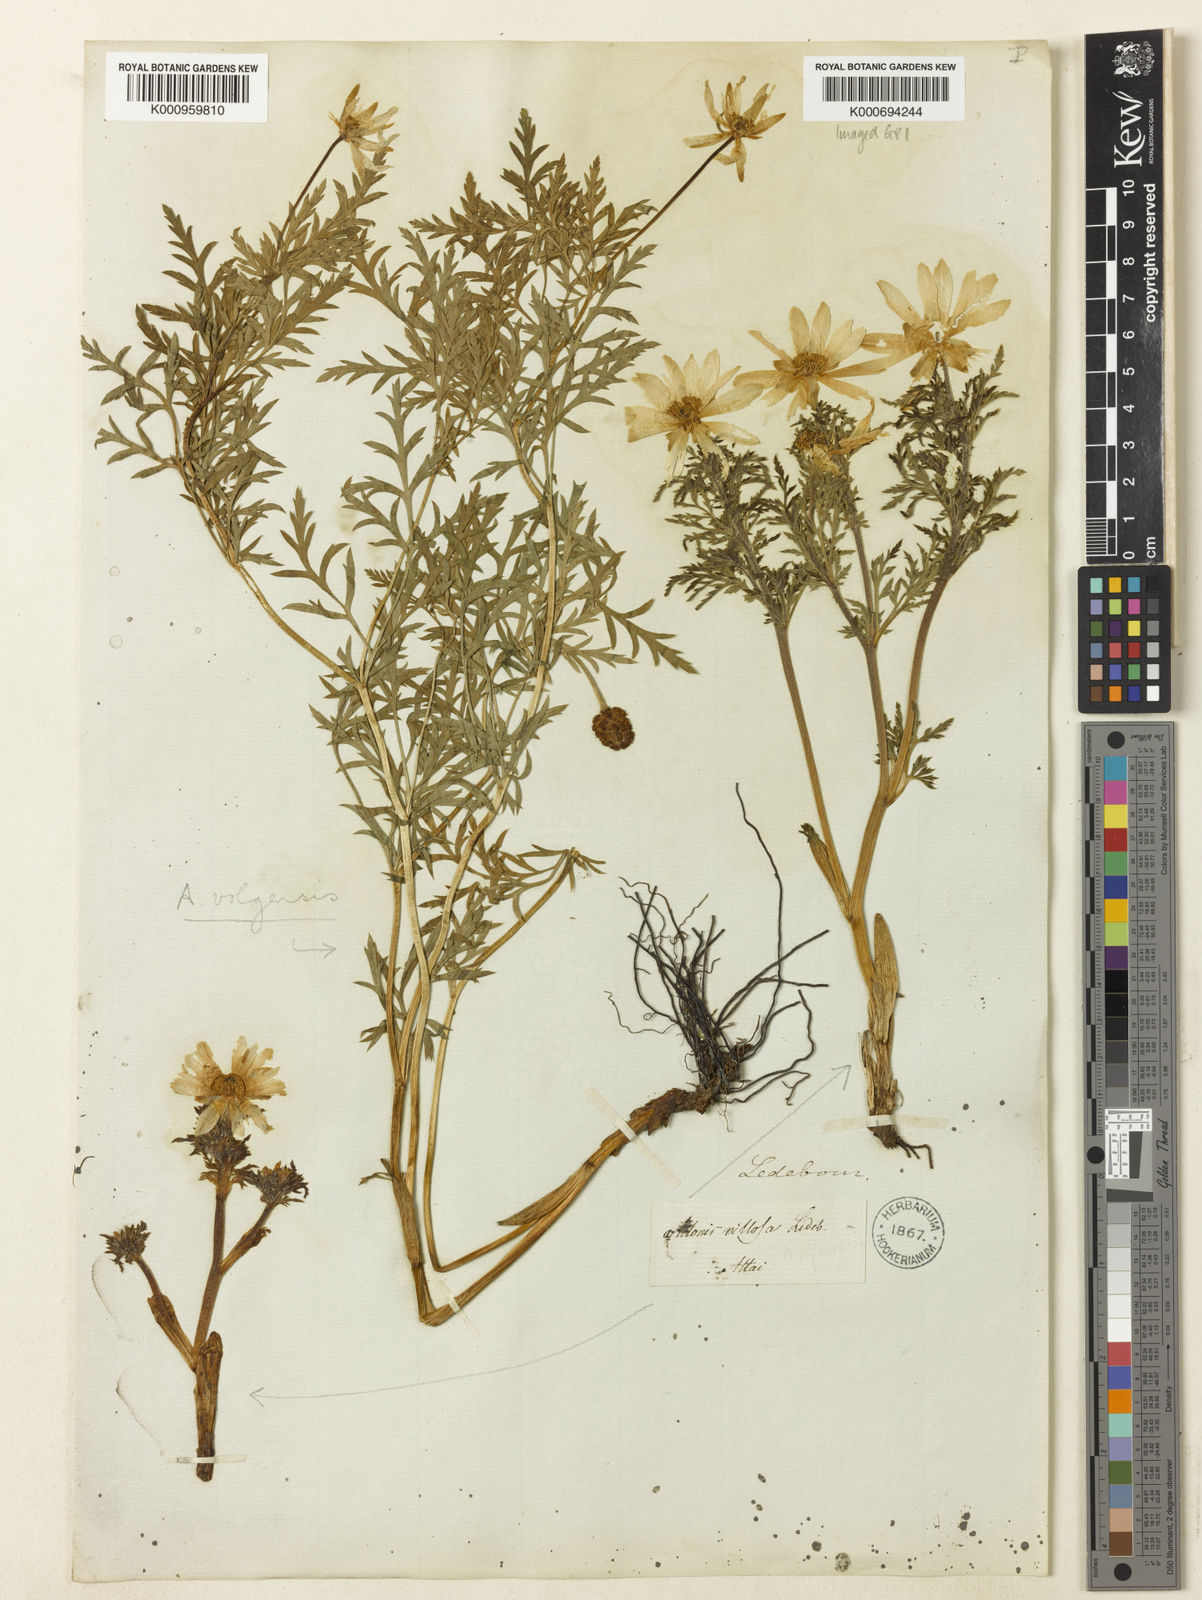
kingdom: Plantae
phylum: Tracheophyta
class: Magnoliopsida
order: Ranunculales
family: Ranunculaceae
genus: Adonis
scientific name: Adonis villosa
